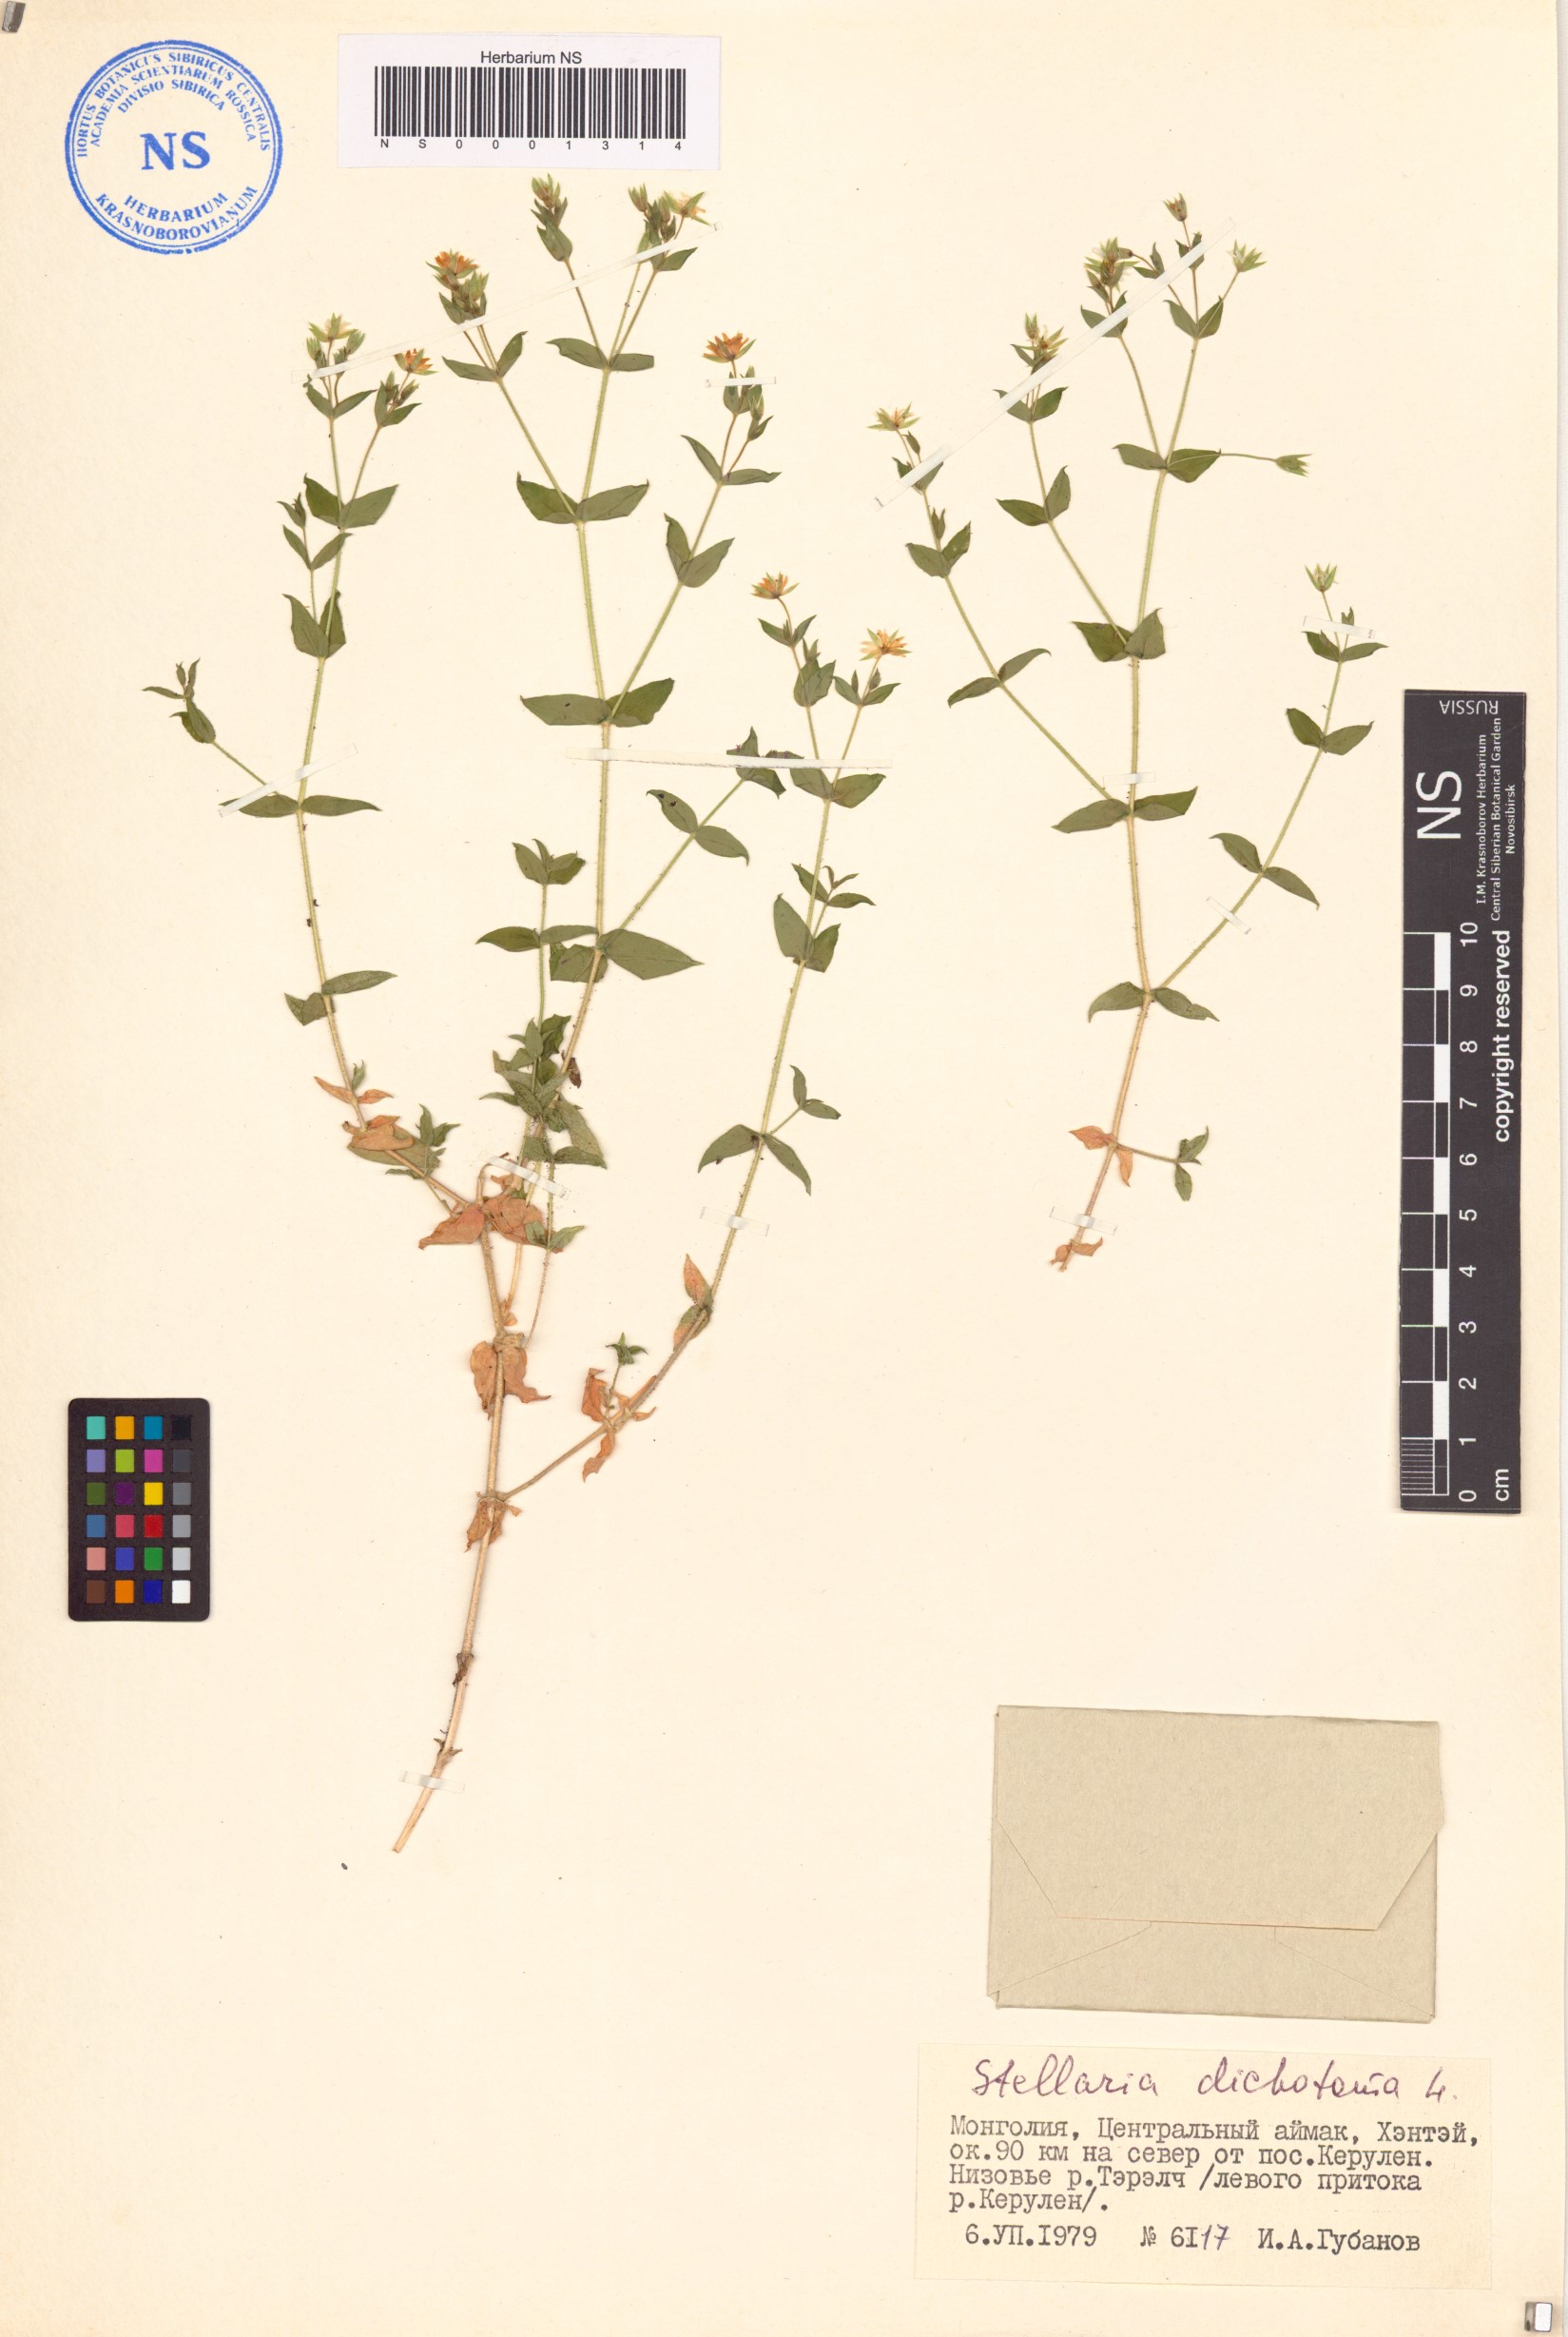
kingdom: Plantae
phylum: Tracheophyta
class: Magnoliopsida
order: Caryophyllales
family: Caryophyllaceae
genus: Mesostemma
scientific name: Mesostemma dichotomum
